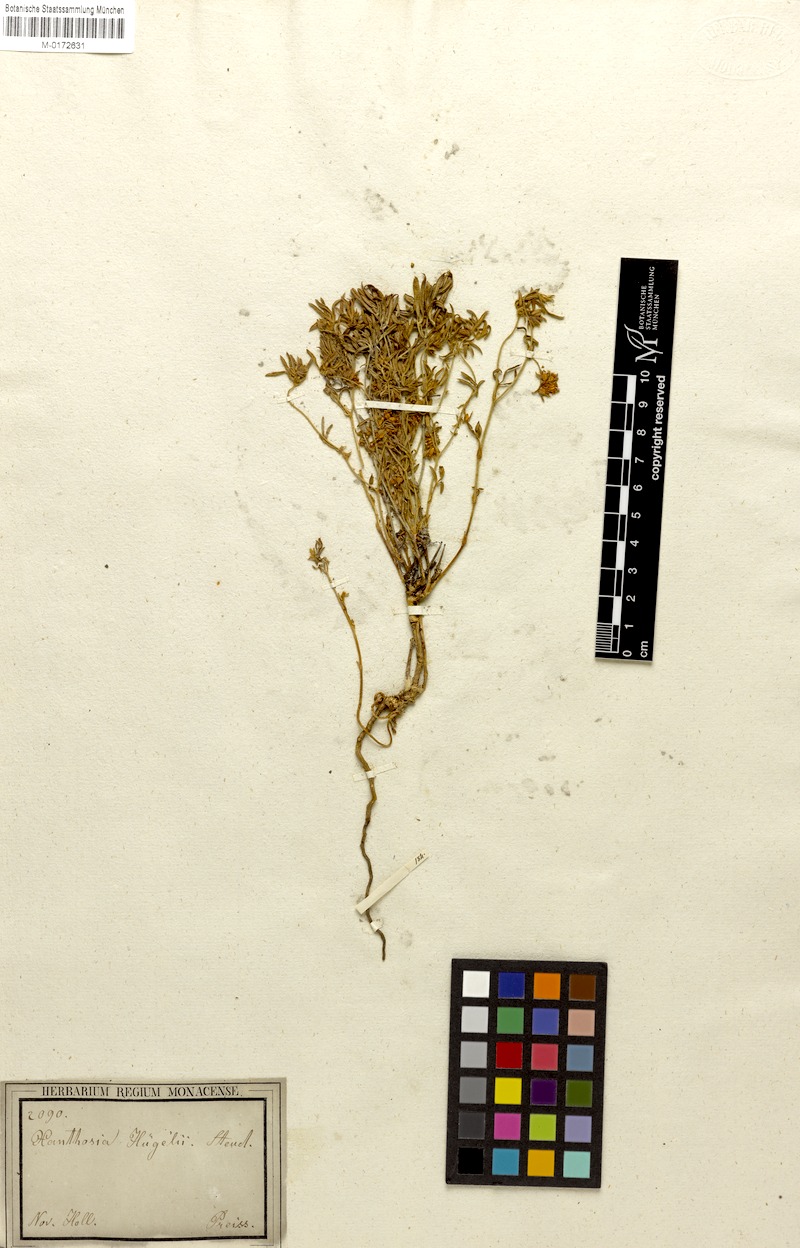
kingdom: Plantae
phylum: Tracheophyta
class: Magnoliopsida
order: Apiales
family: Apiaceae
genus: Xanthosia
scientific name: Xanthosia huegelii
